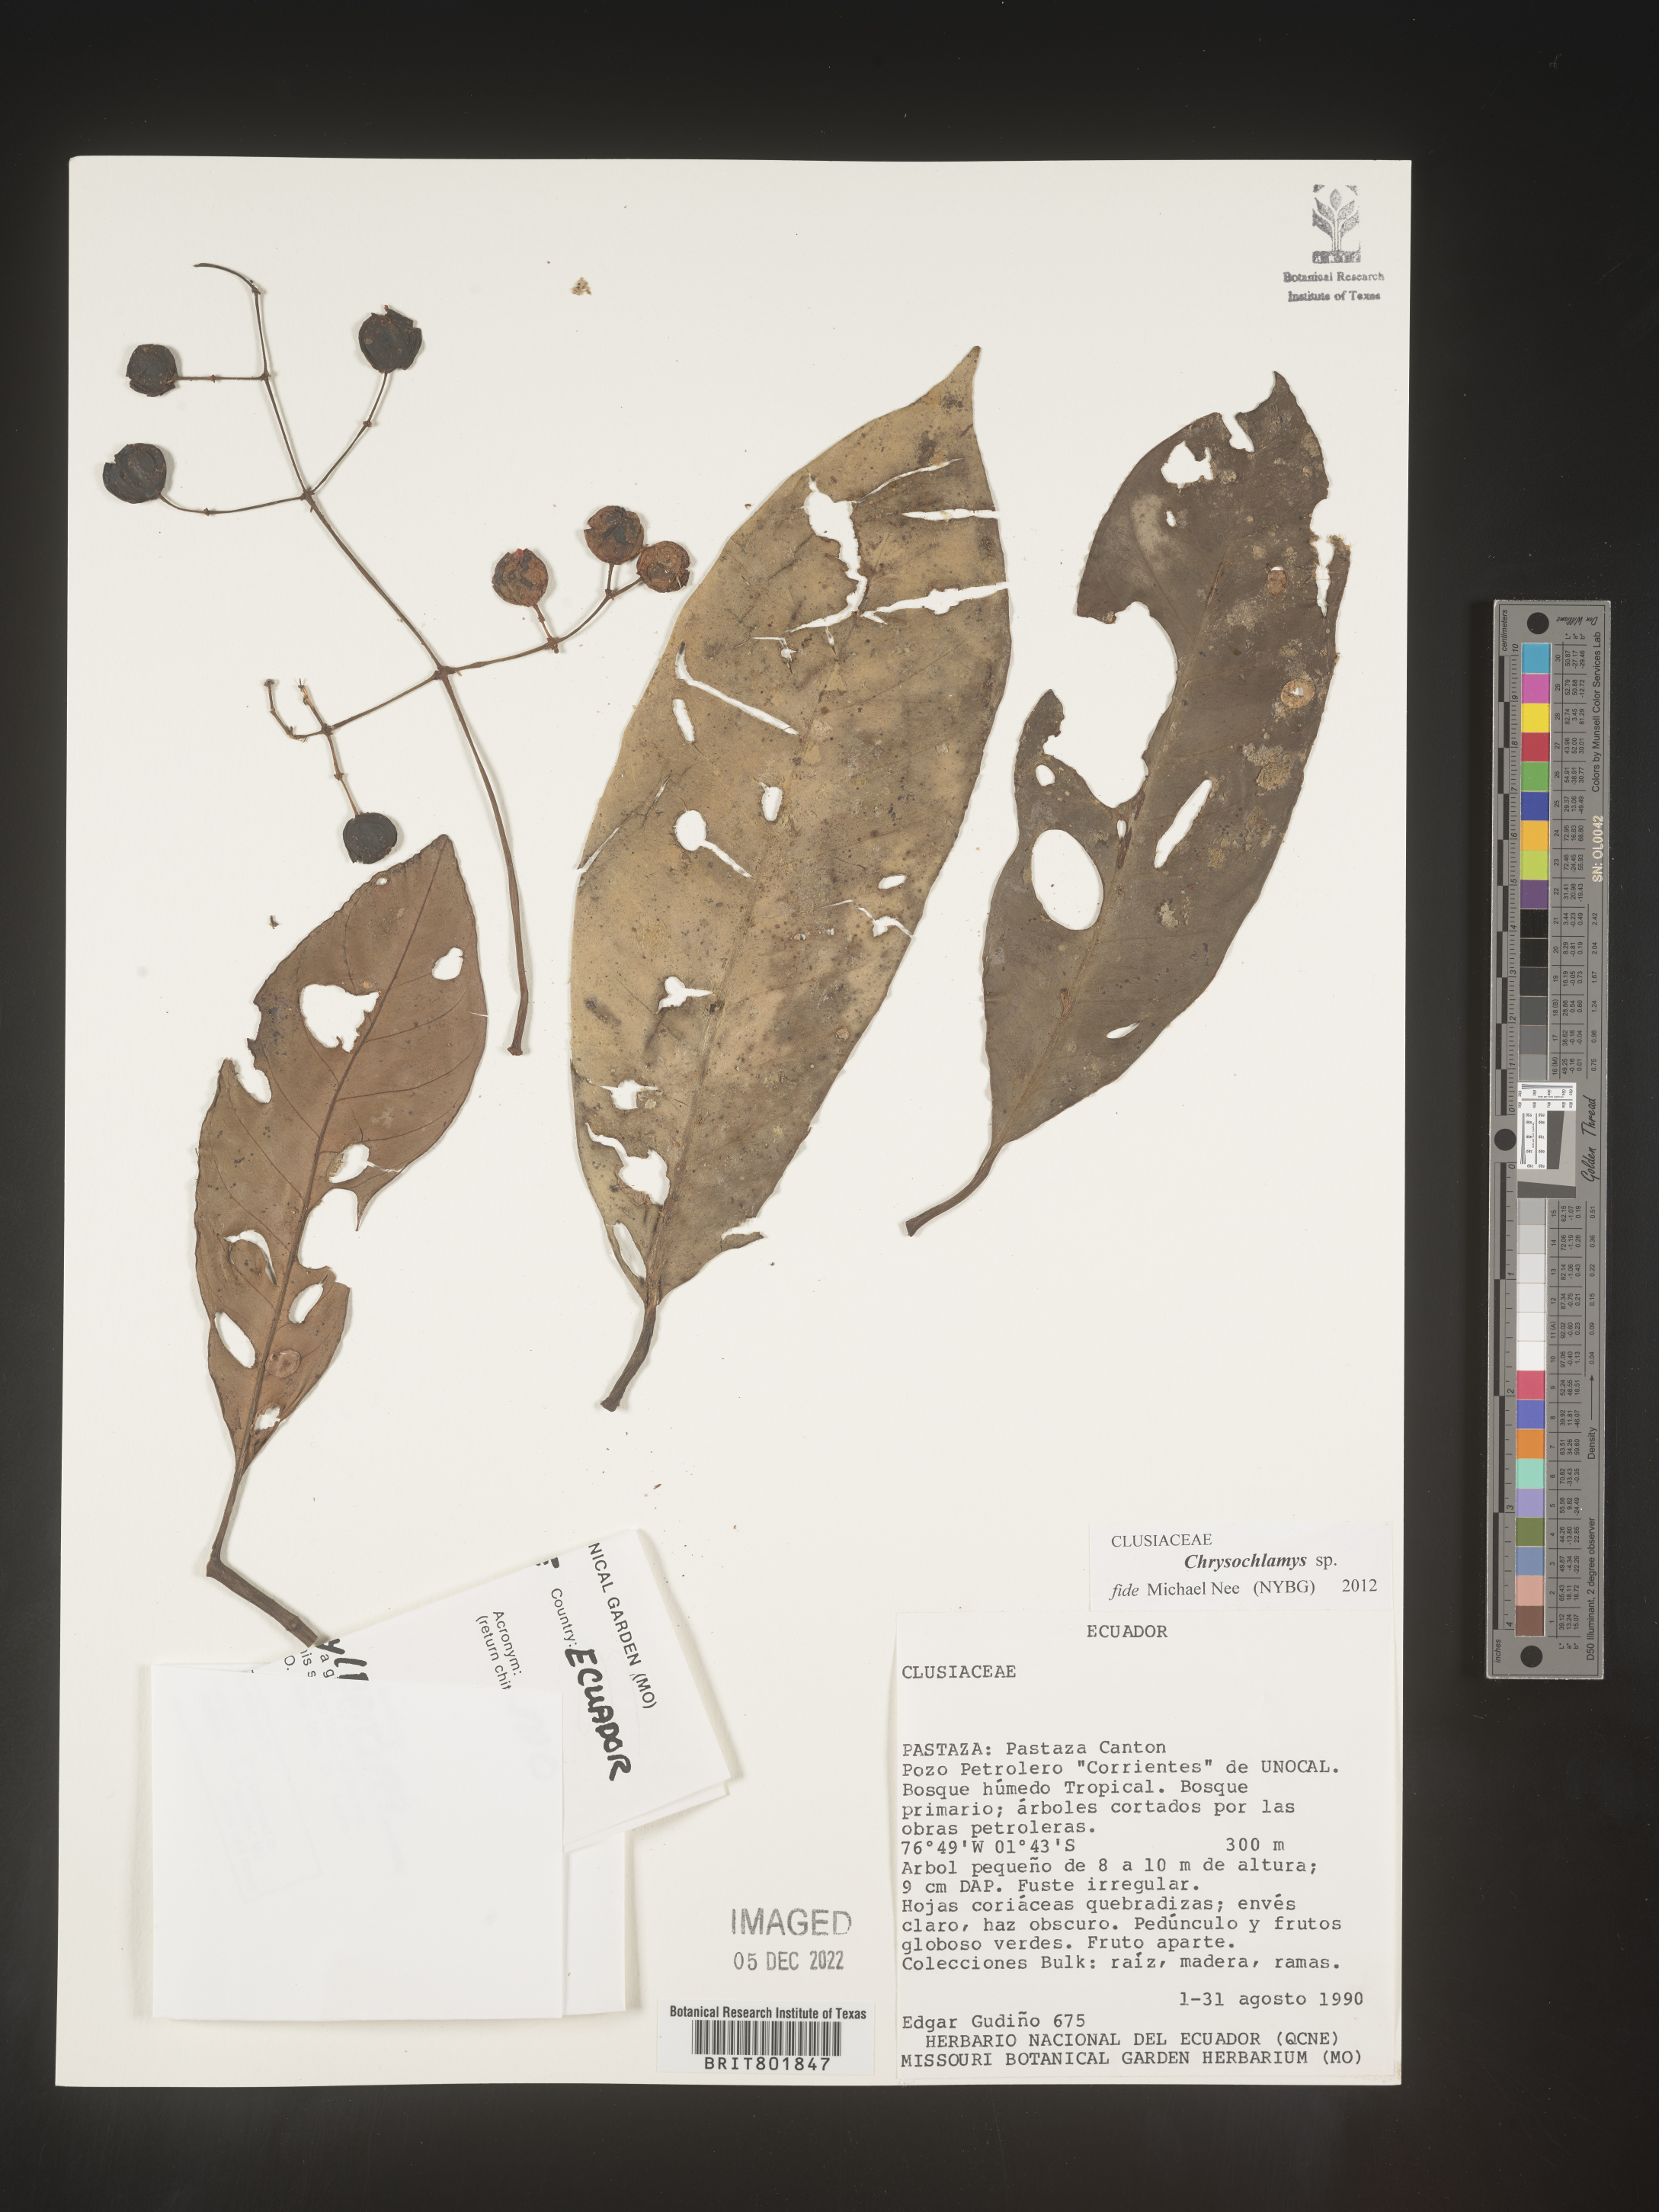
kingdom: Plantae
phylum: Tracheophyta
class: Magnoliopsida
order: Malpighiales
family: Clusiaceae
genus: Chrysochlamys
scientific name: Chrysochlamys
